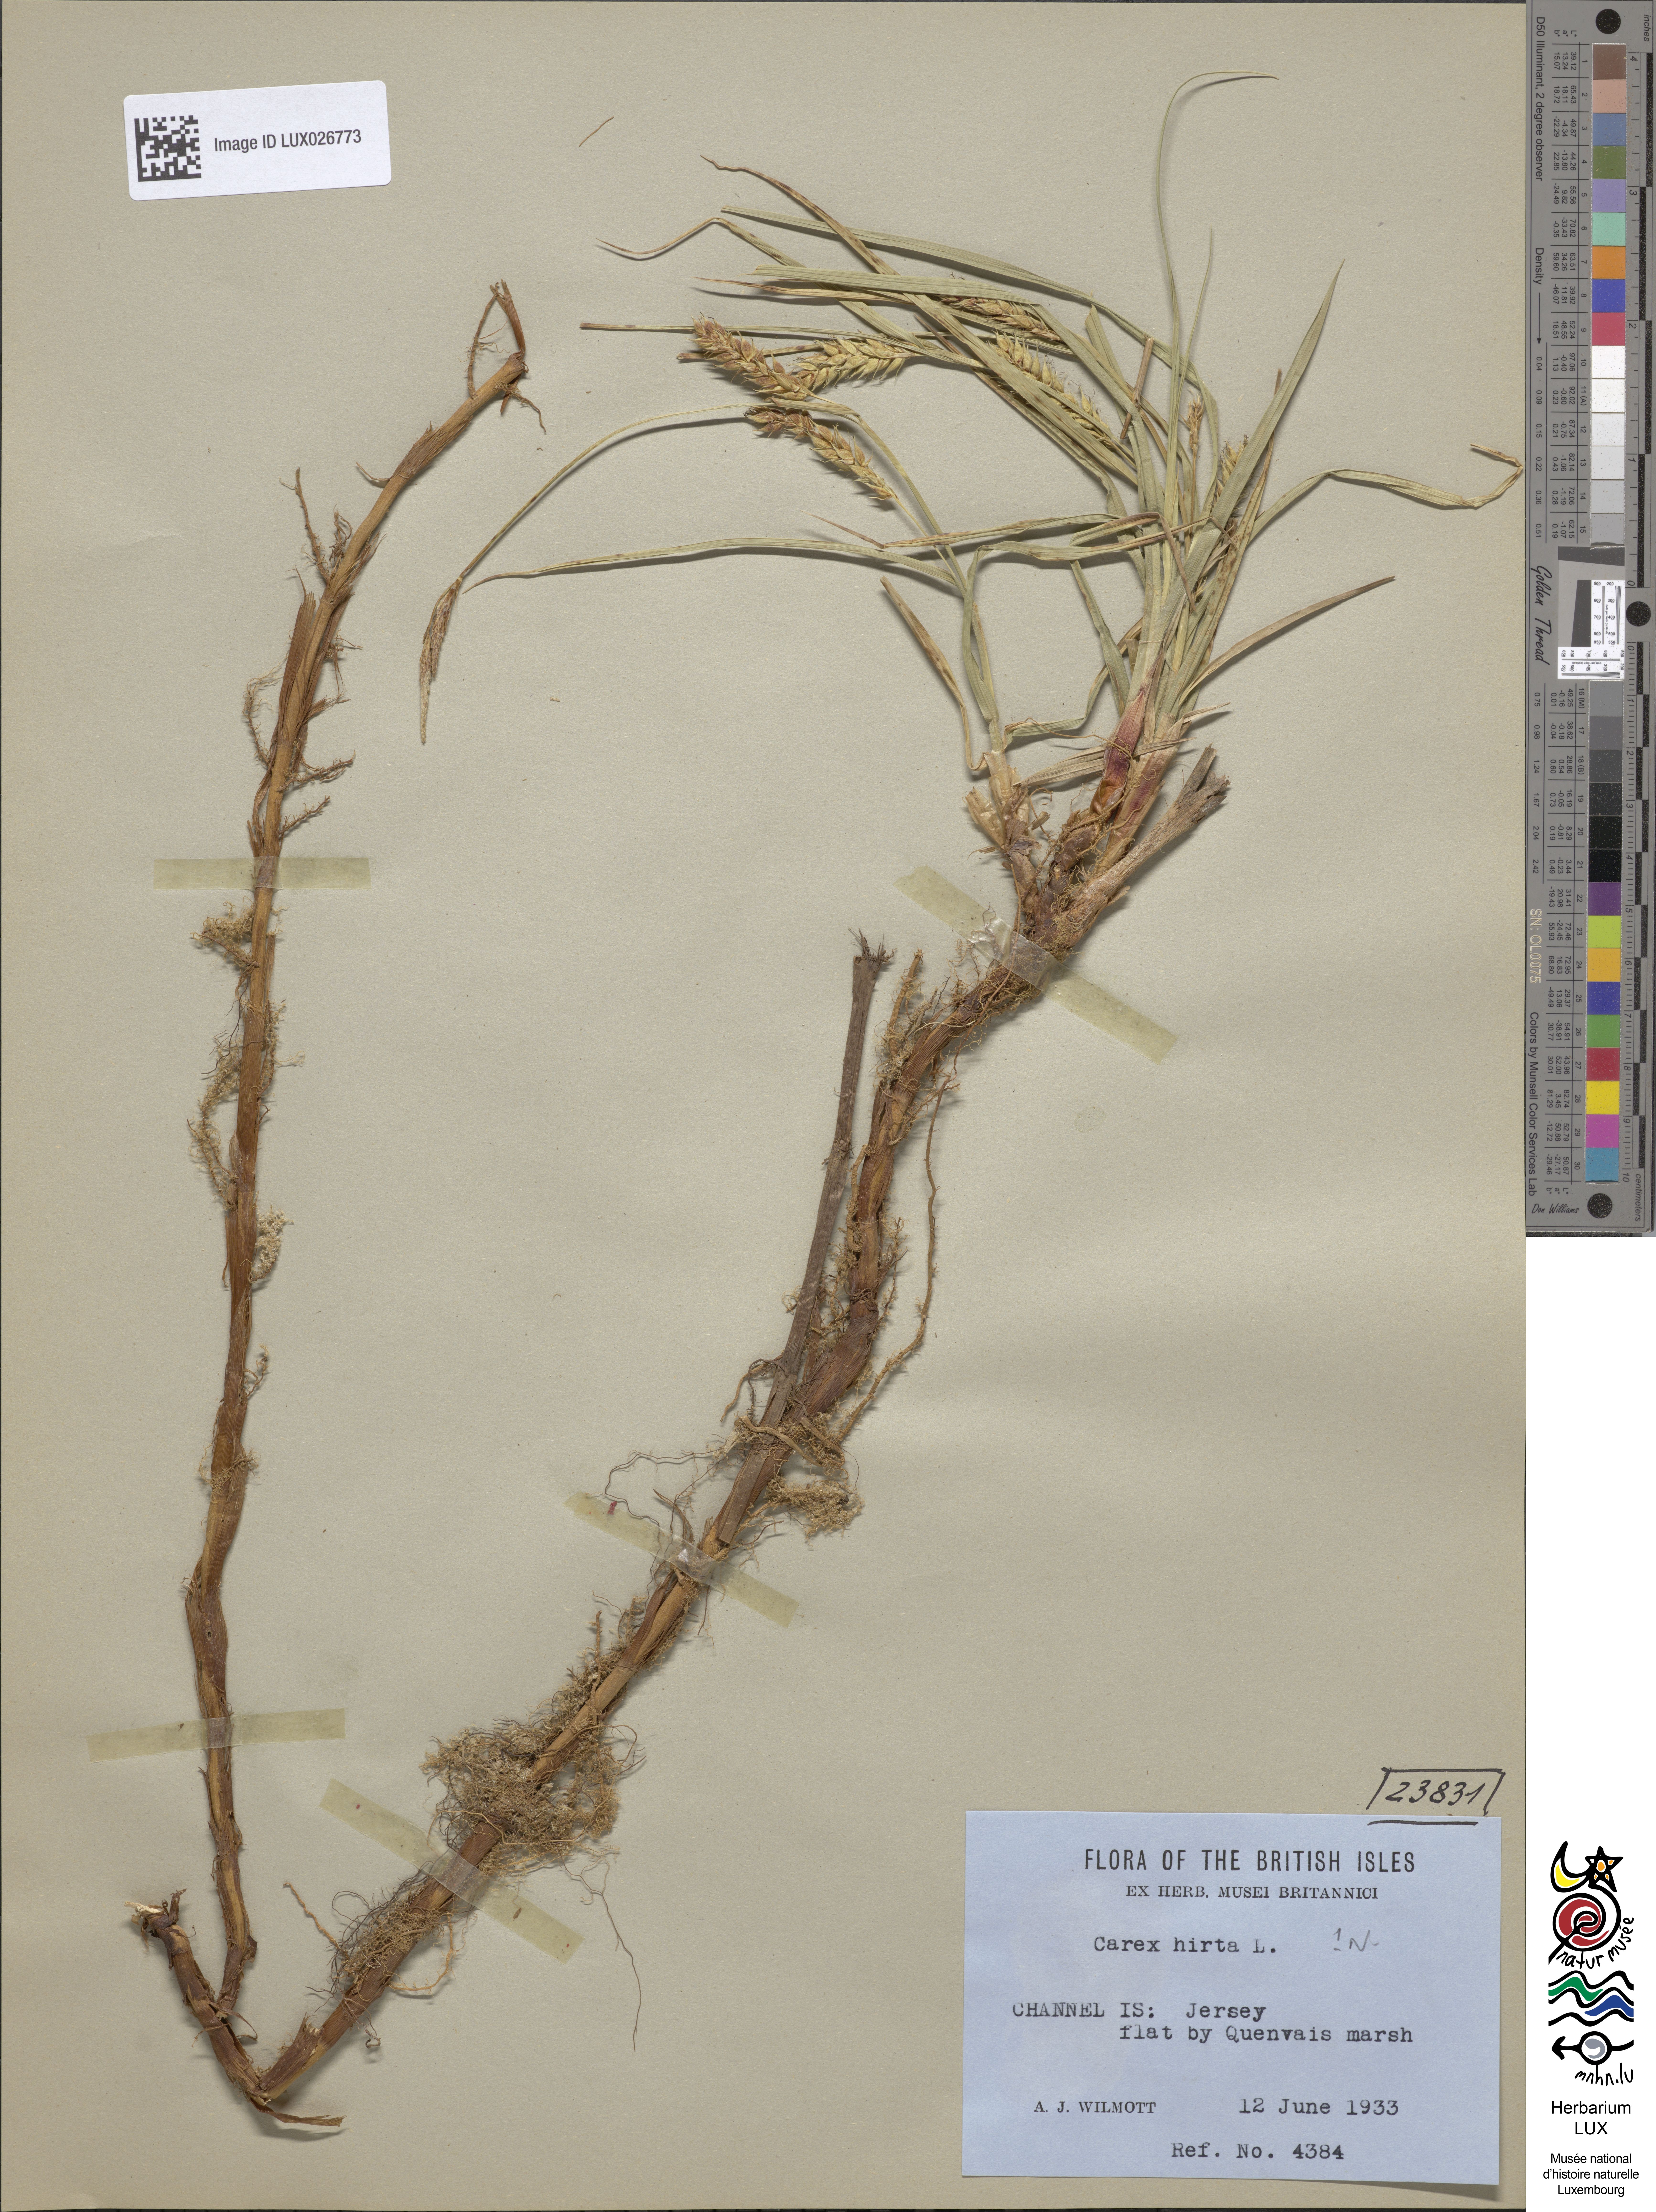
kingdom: Plantae
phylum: Tracheophyta
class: Liliopsida
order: Poales
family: Cyperaceae
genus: Carex
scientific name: Carex hirta
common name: Hairy sedge
